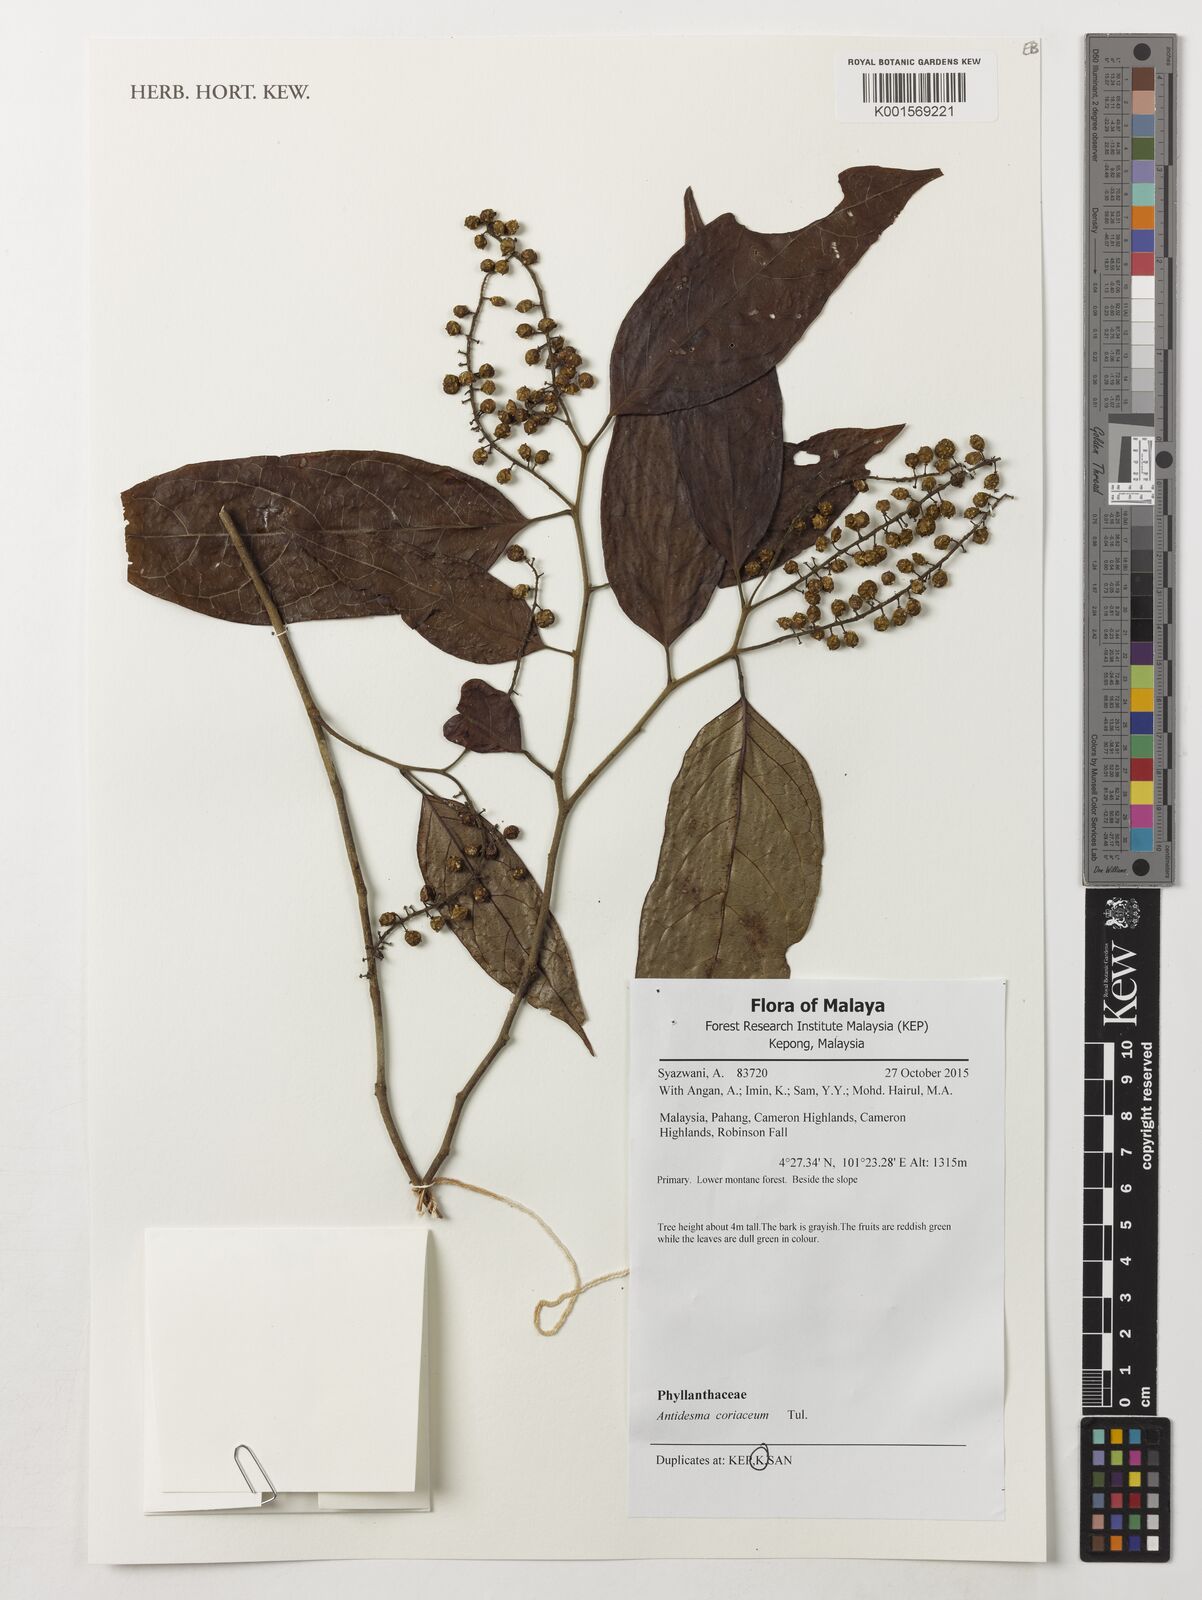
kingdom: Plantae
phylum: Tracheophyta
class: Magnoliopsida
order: Malpighiales
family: Phyllanthaceae
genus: Antidesma
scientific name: Antidesma coriaceum
